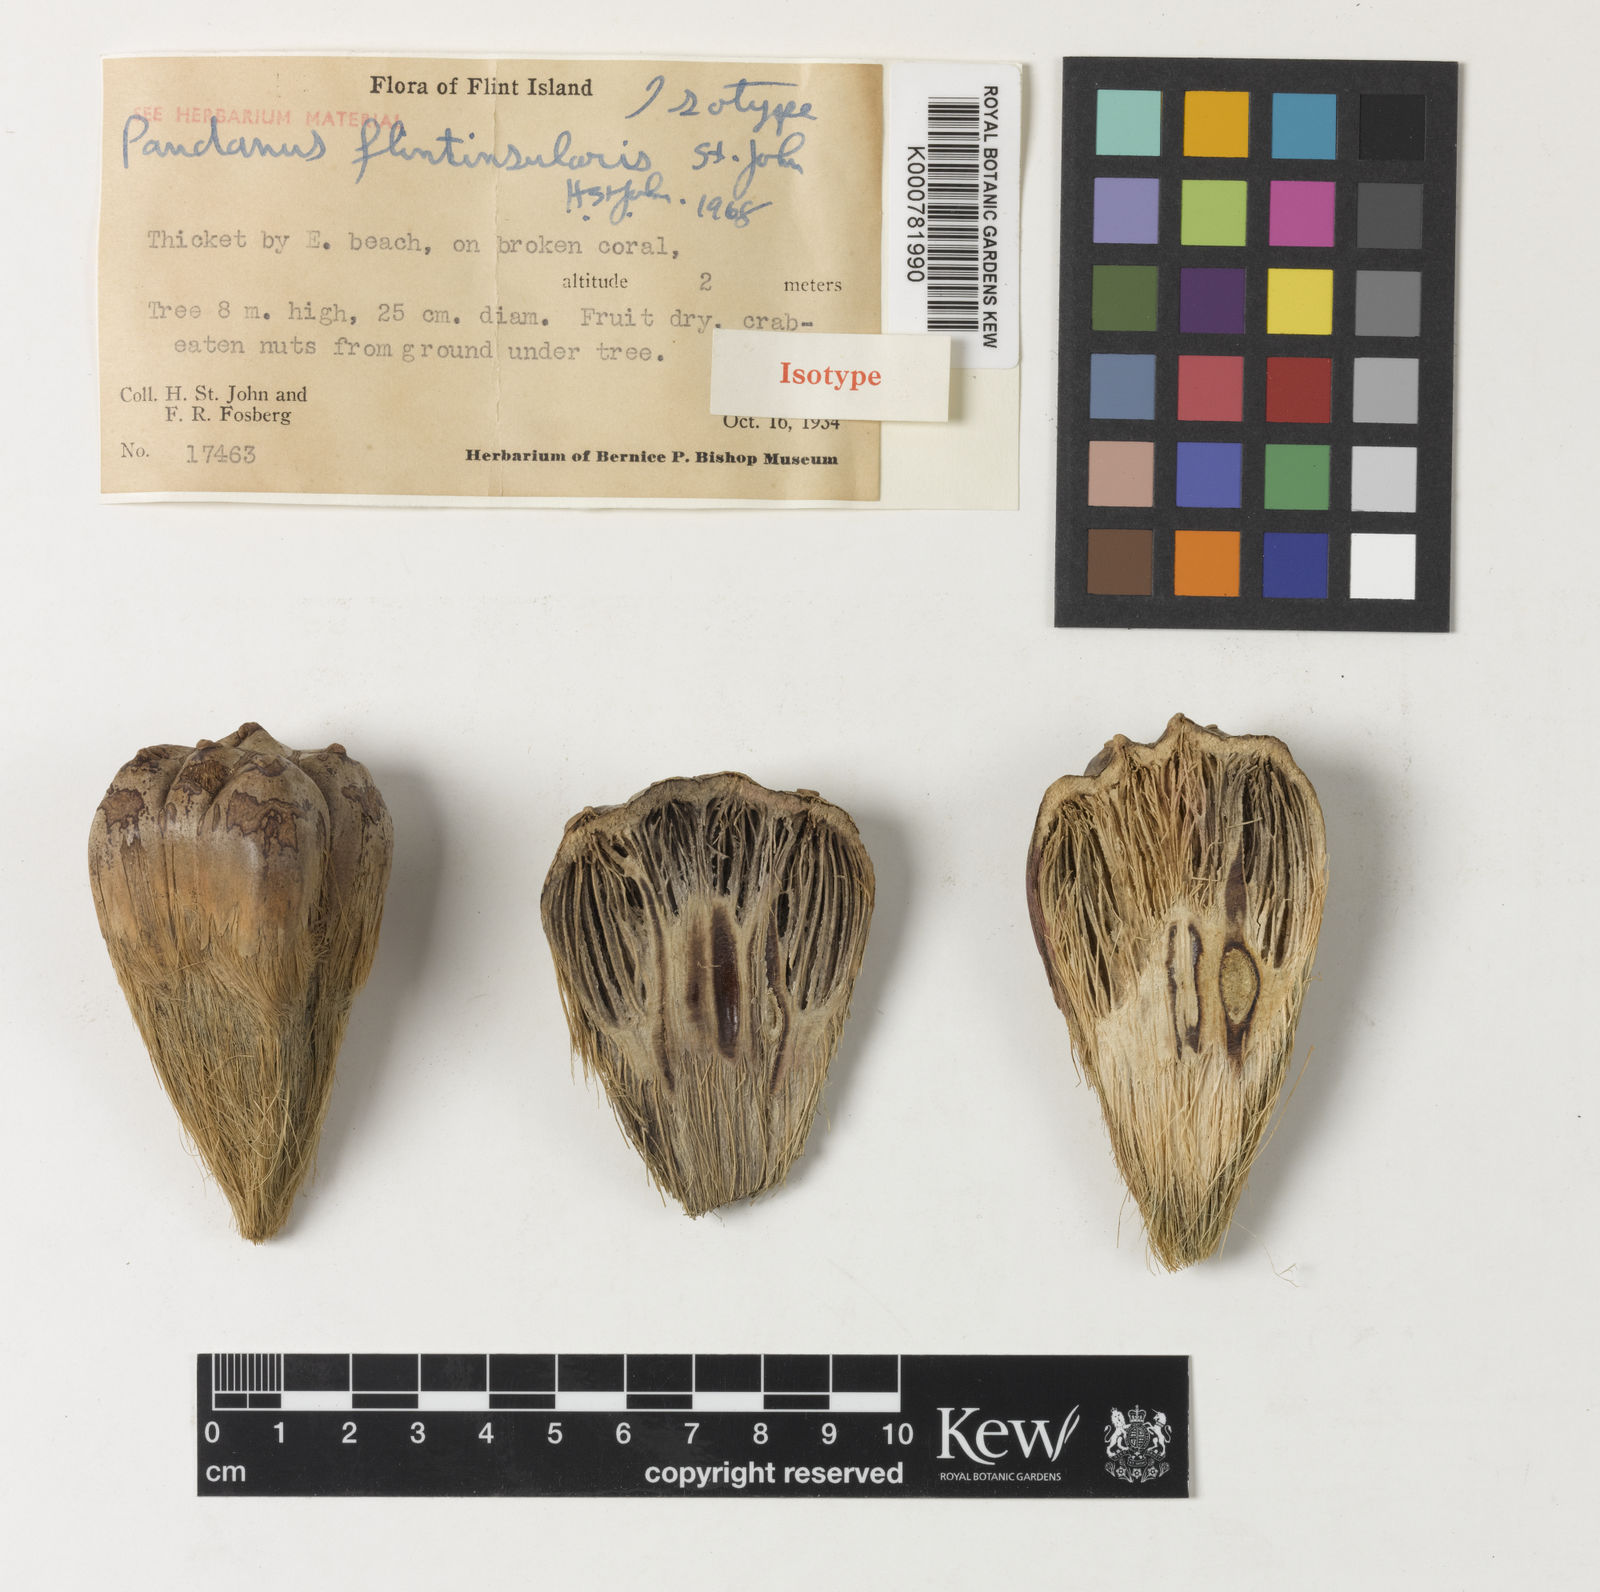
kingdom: Plantae
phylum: Tracheophyta
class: Liliopsida
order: Pandanales
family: Pandanaceae
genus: Pandanus
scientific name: Pandanus tectorius
